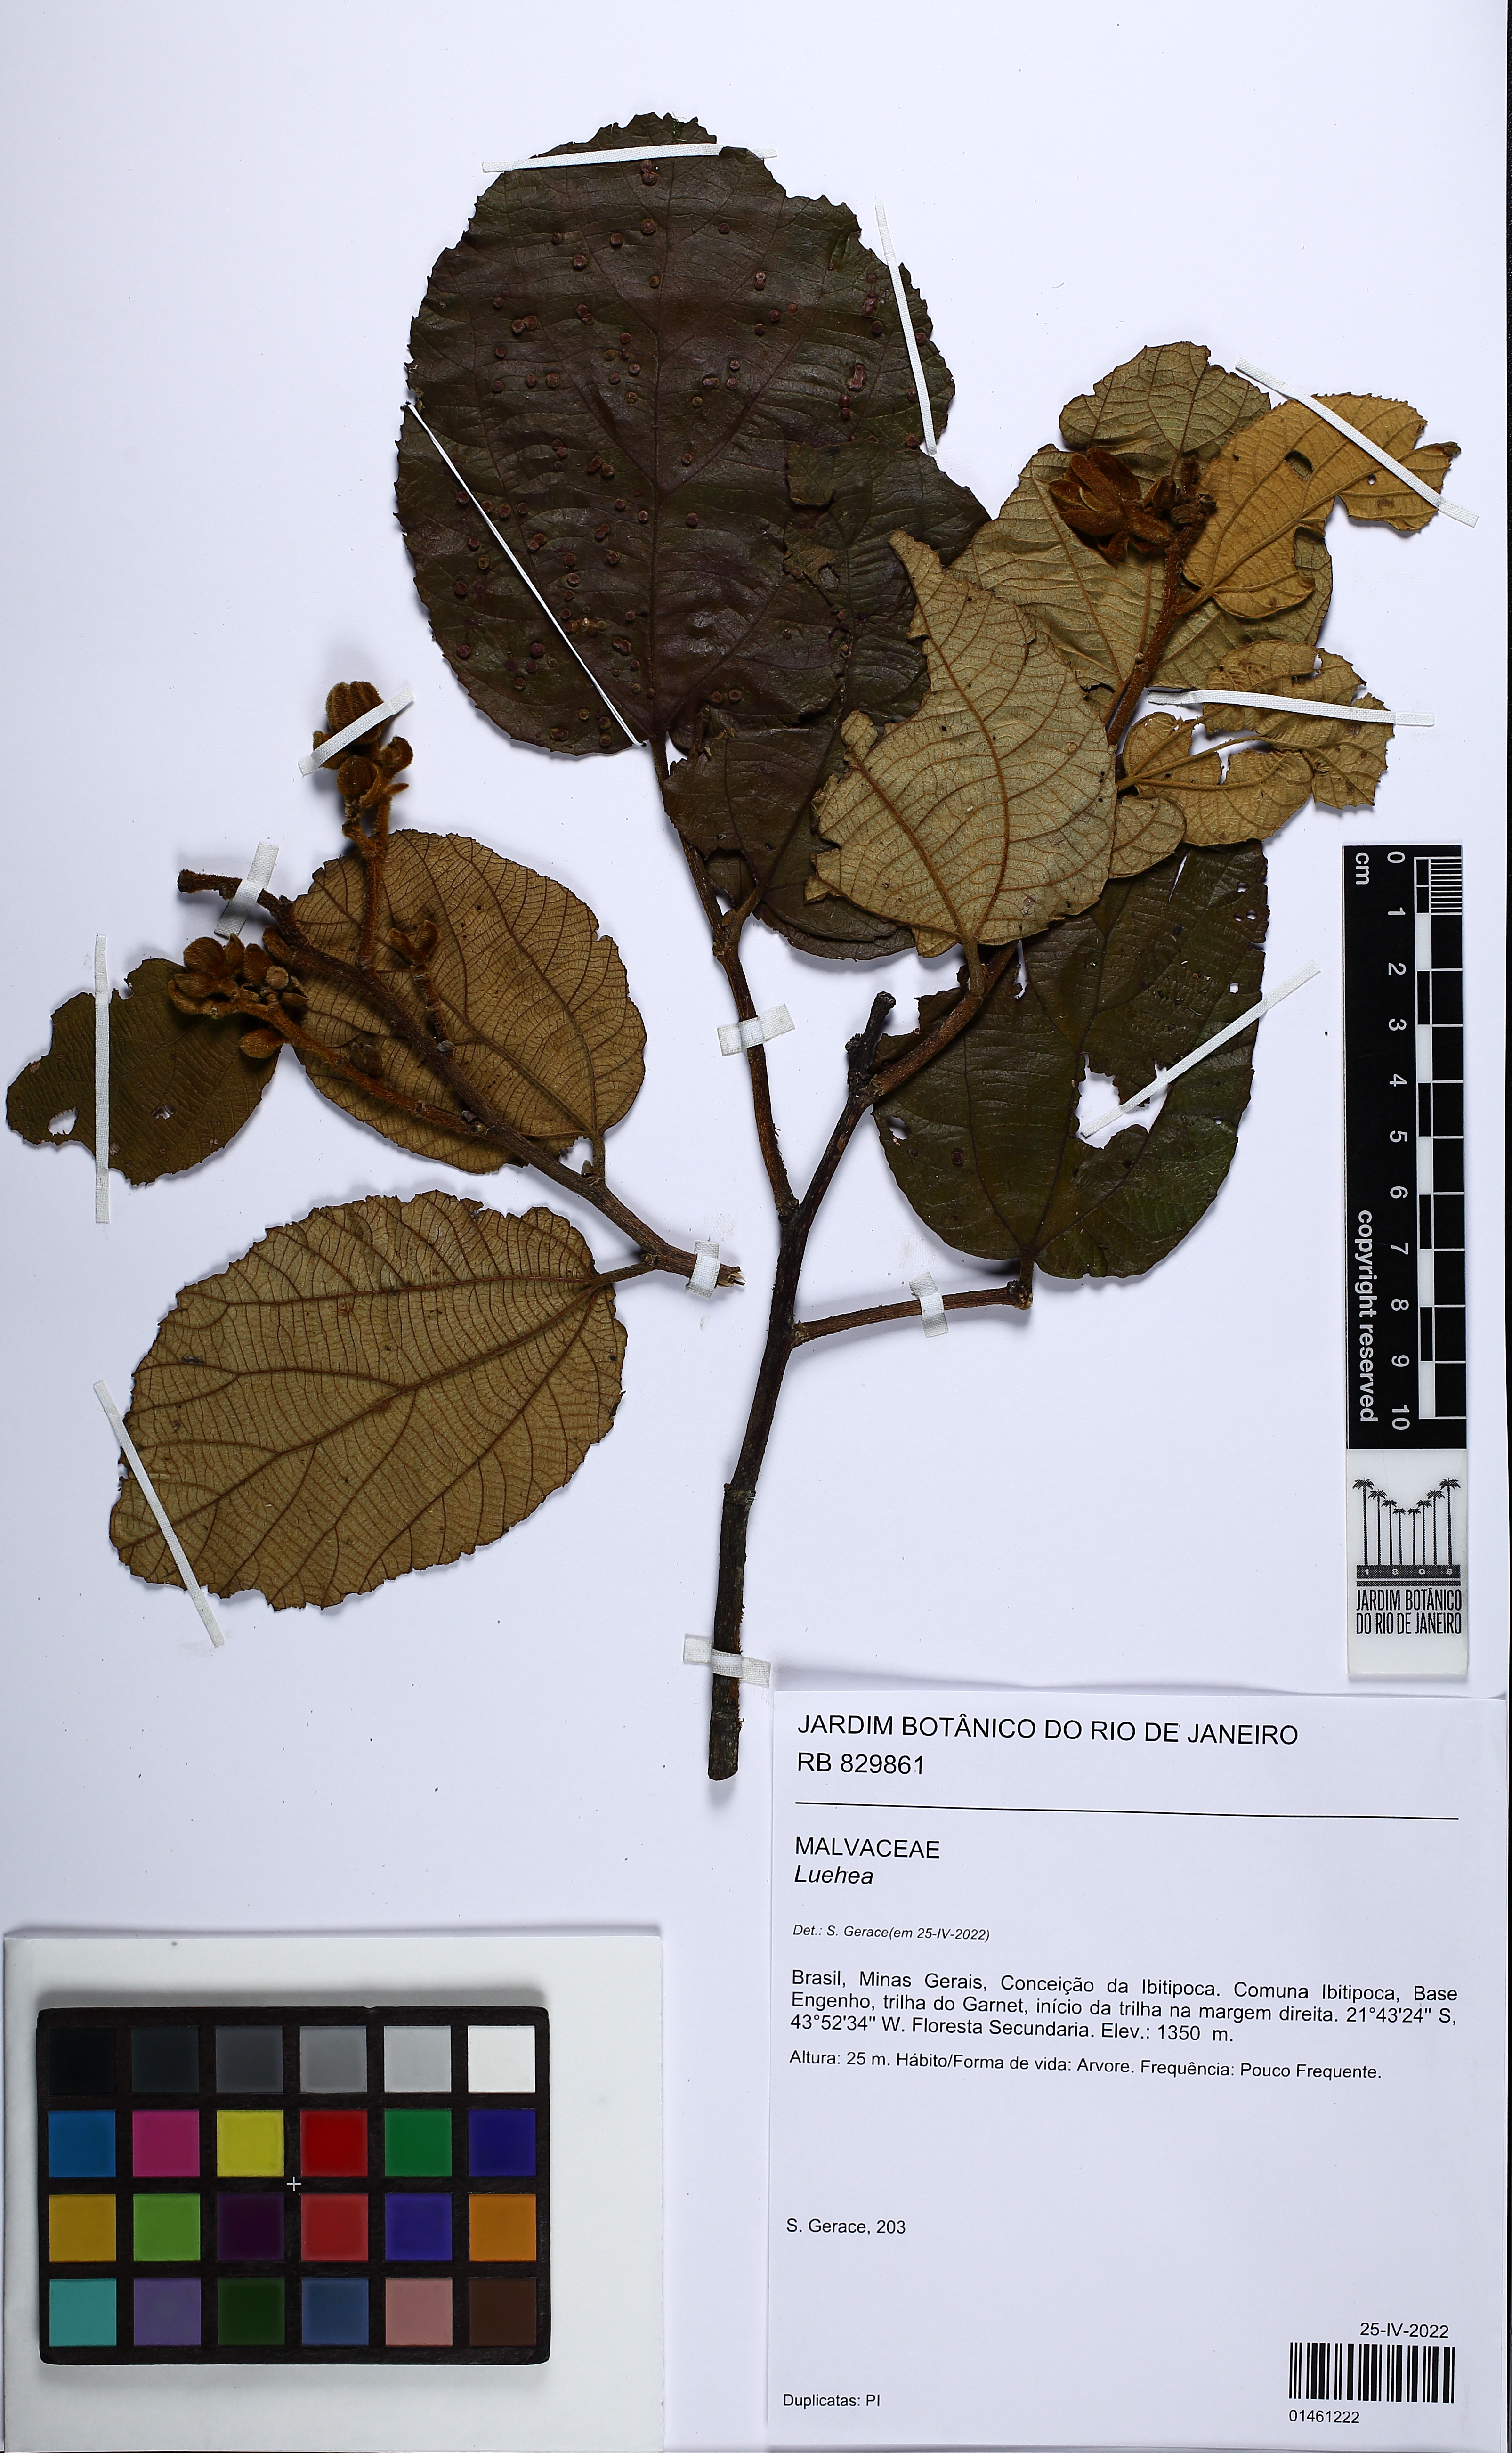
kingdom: Plantae
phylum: Tracheophyta
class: Magnoliopsida
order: Malvales
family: Malvaceae
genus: Luehea
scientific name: Luehea
